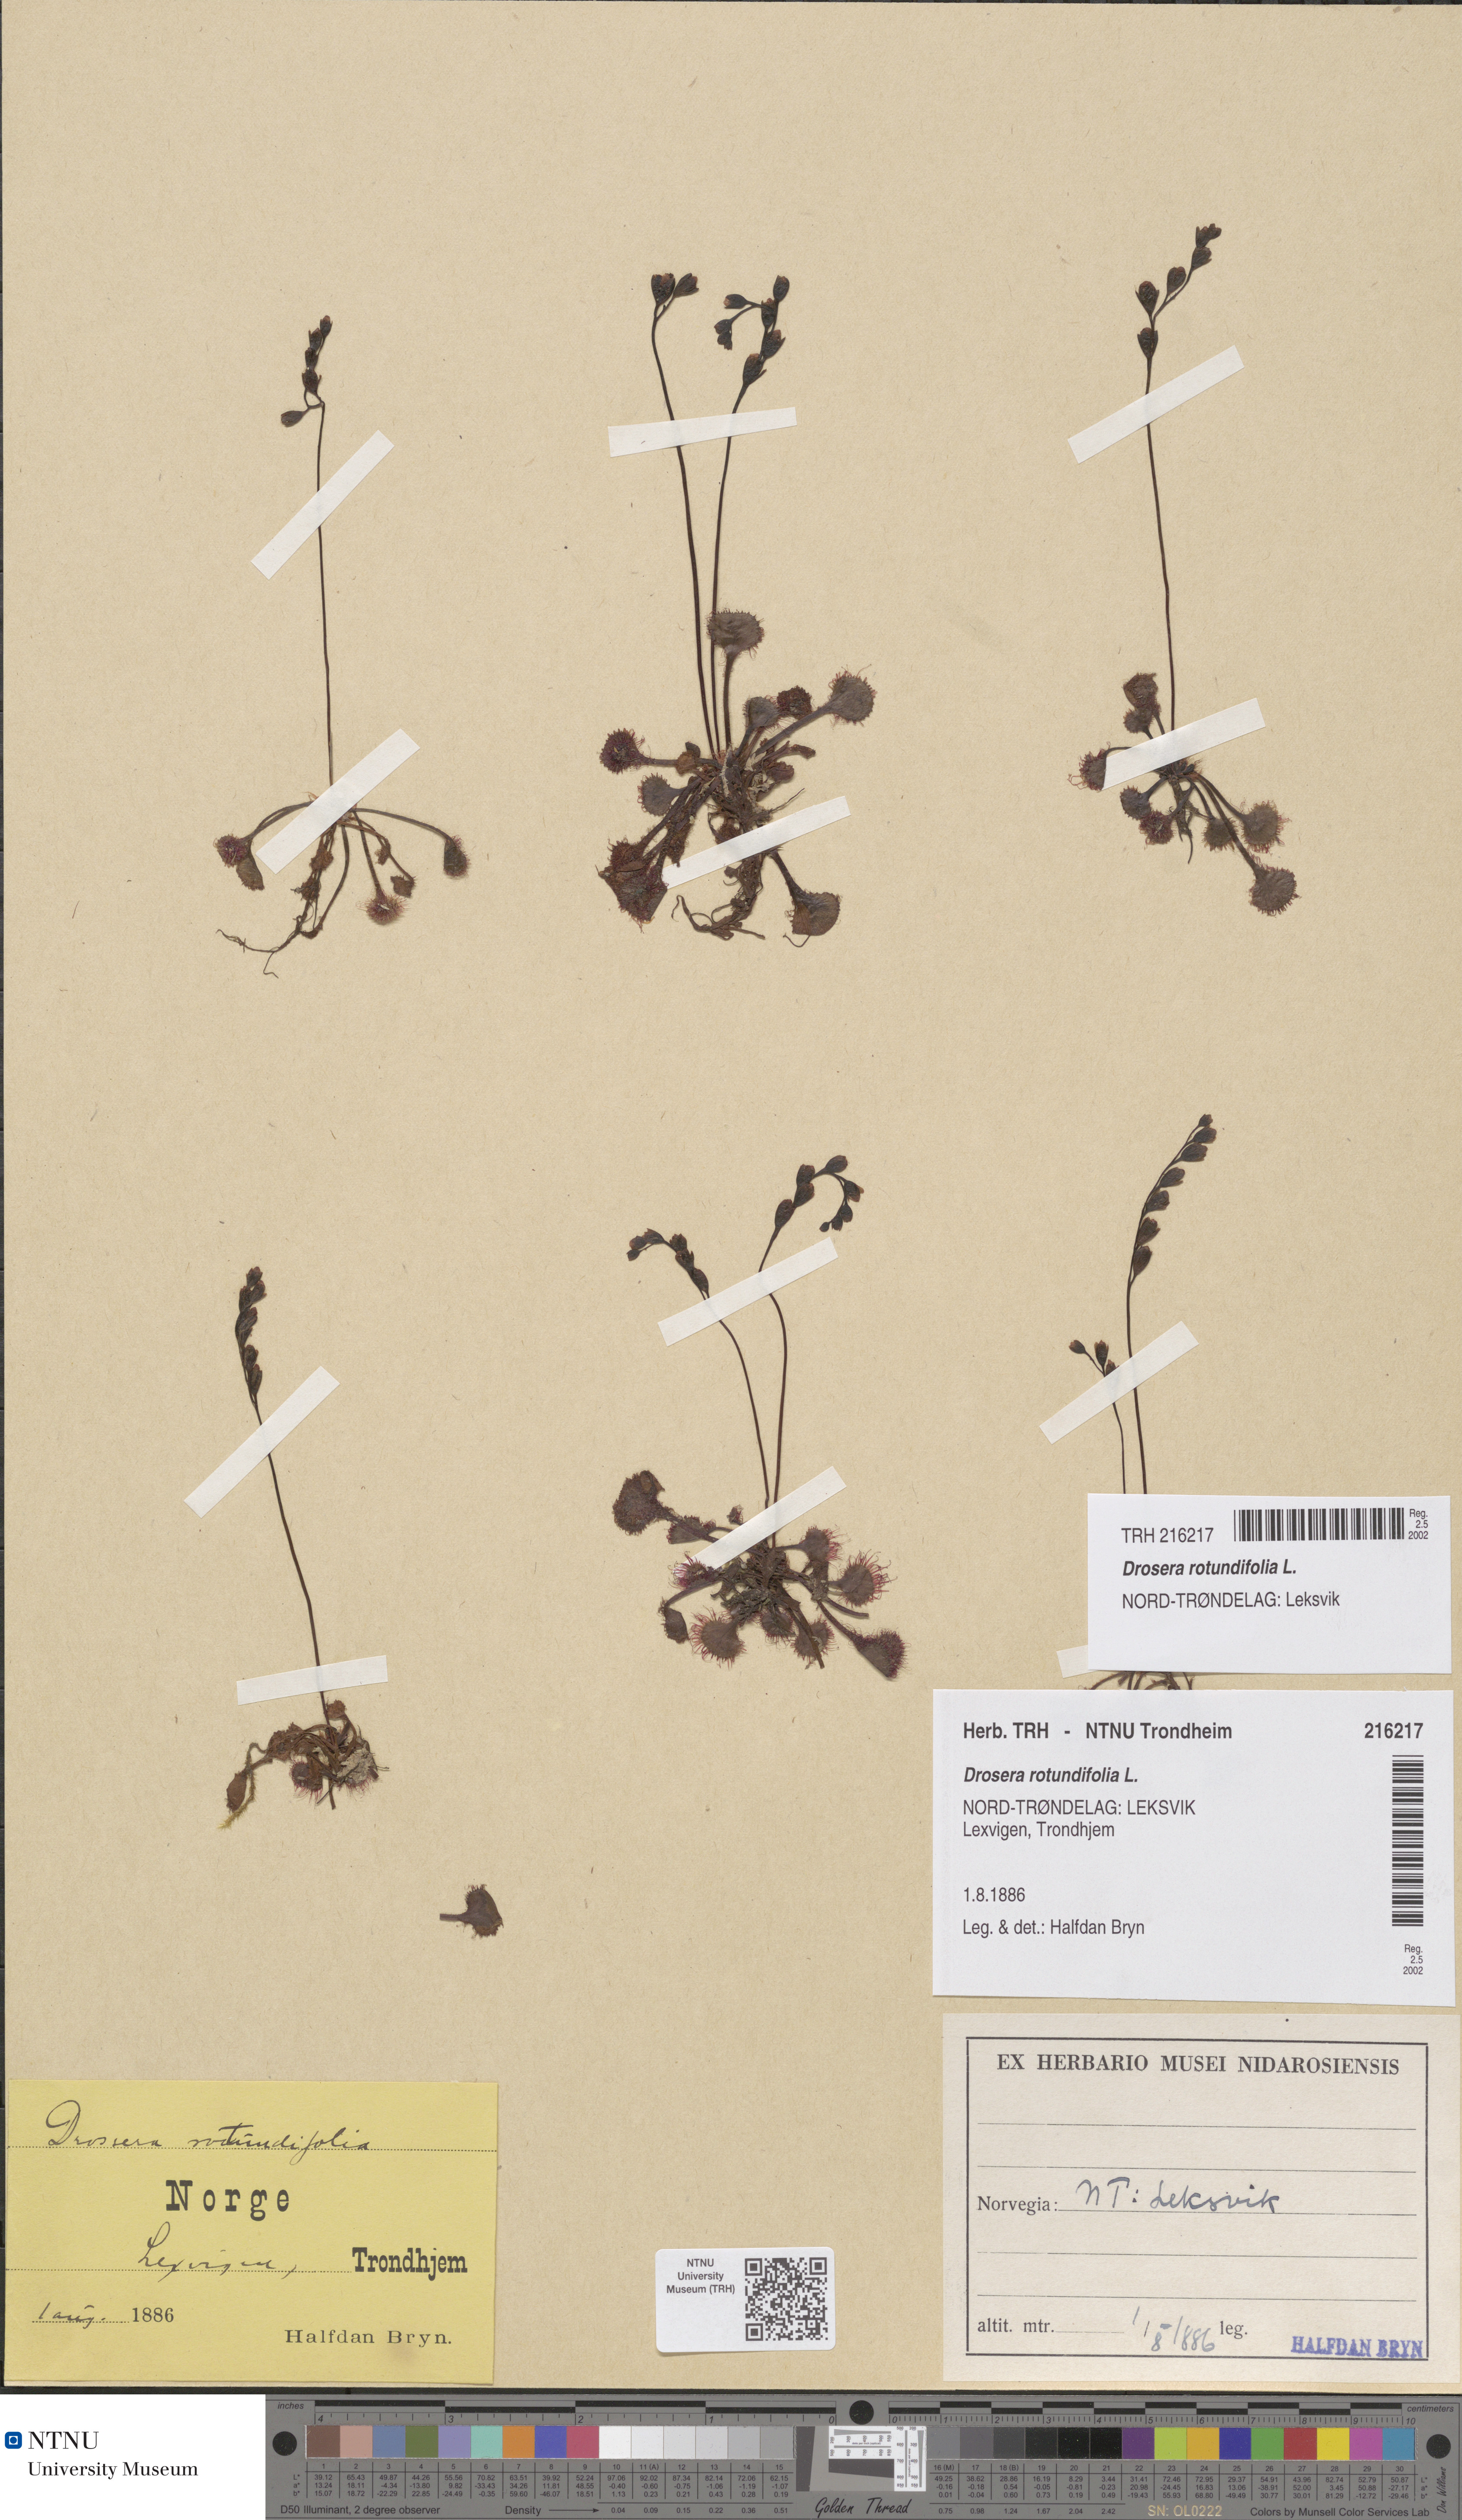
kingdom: Plantae
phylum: Tracheophyta
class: Magnoliopsida
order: Caryophyllales
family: Droseraceae
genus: Drosera
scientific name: Drosera rotundifolia
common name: Round-leaved sundew
